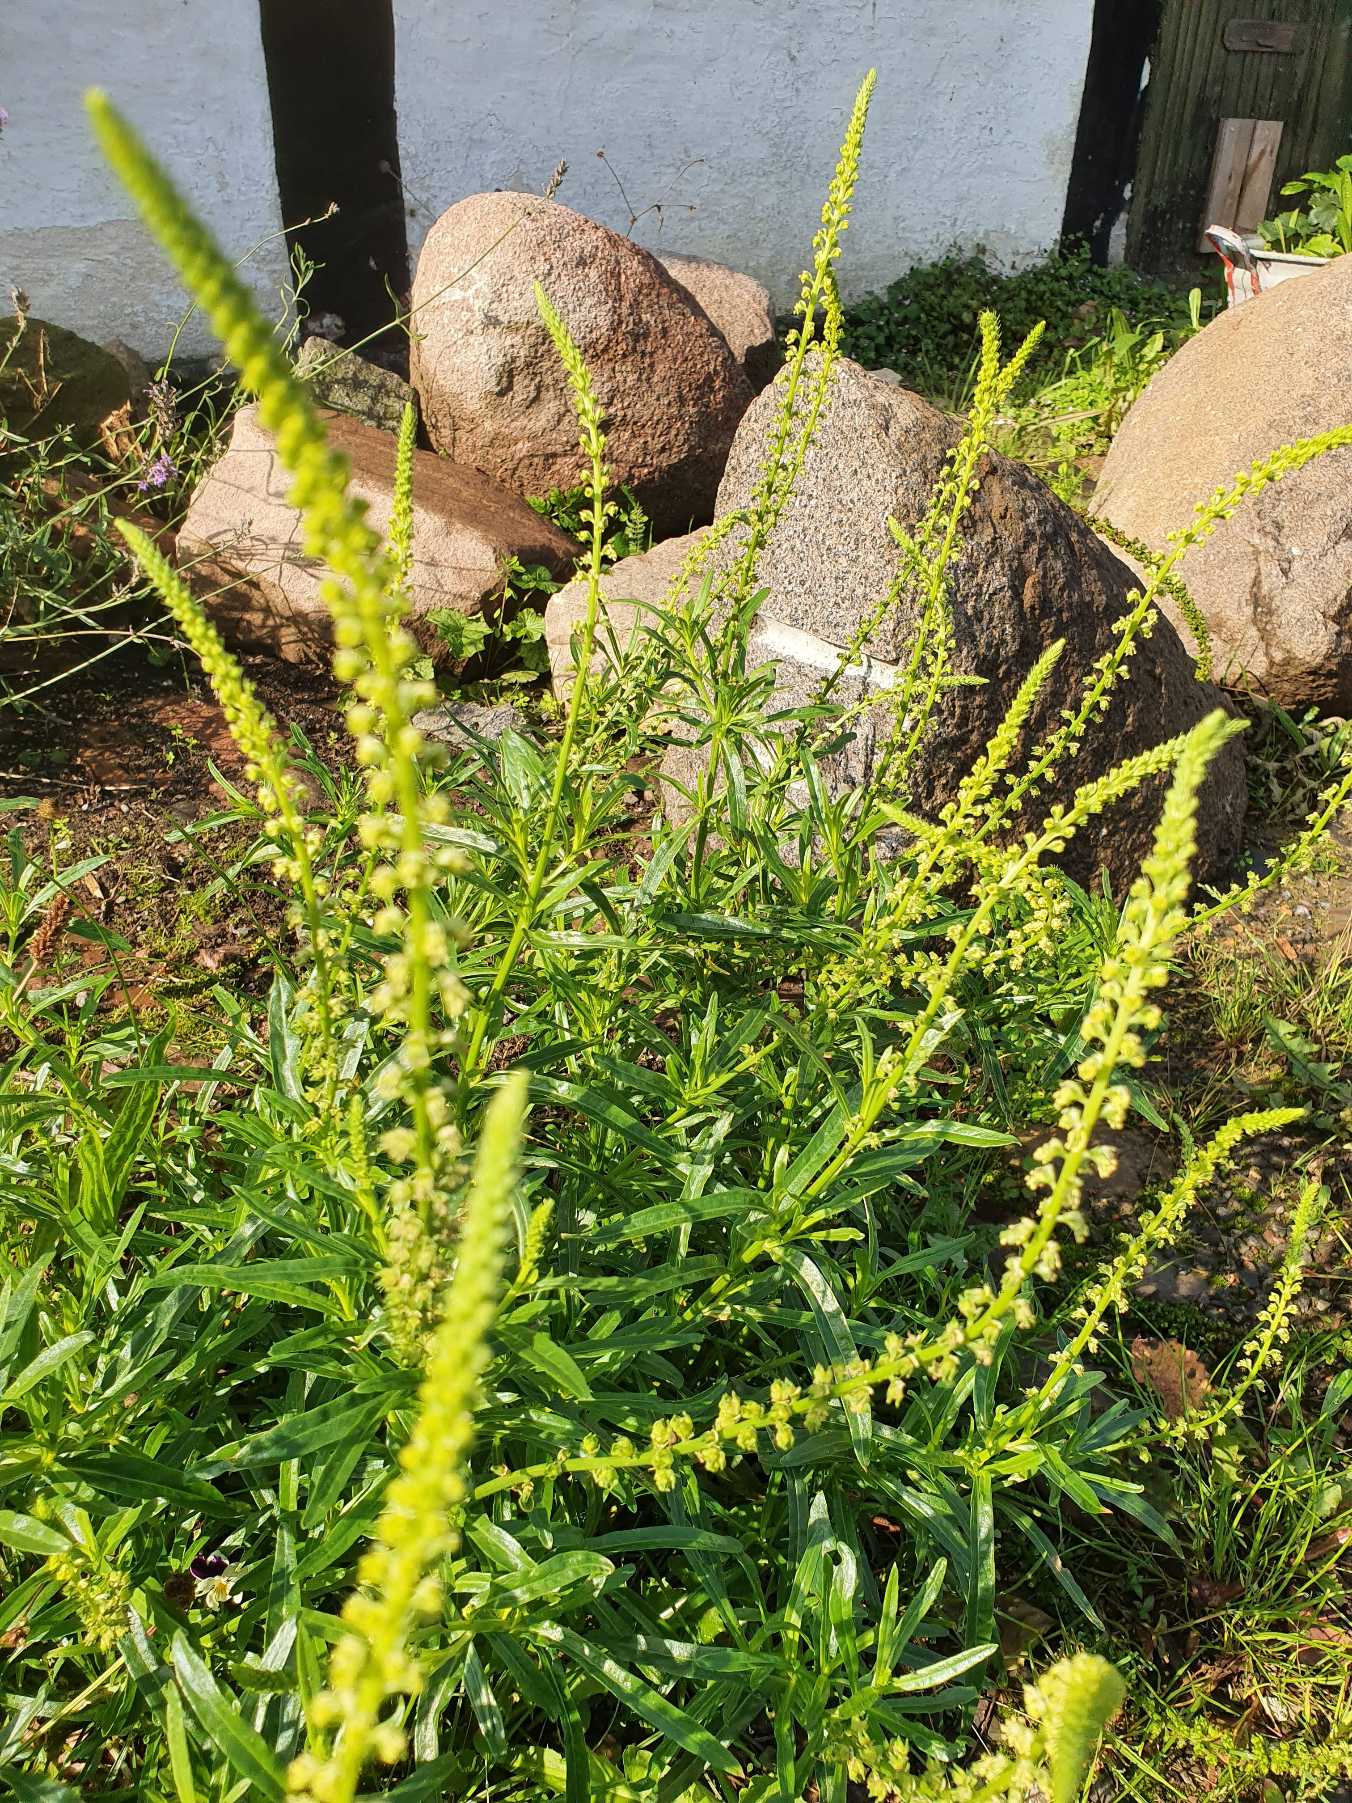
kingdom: Plantae
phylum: Tracheophyta
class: Magnoliopsida
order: Brassicales
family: Resedaceae
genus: Reseda
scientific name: Reseda luteola
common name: Farve-reseda
